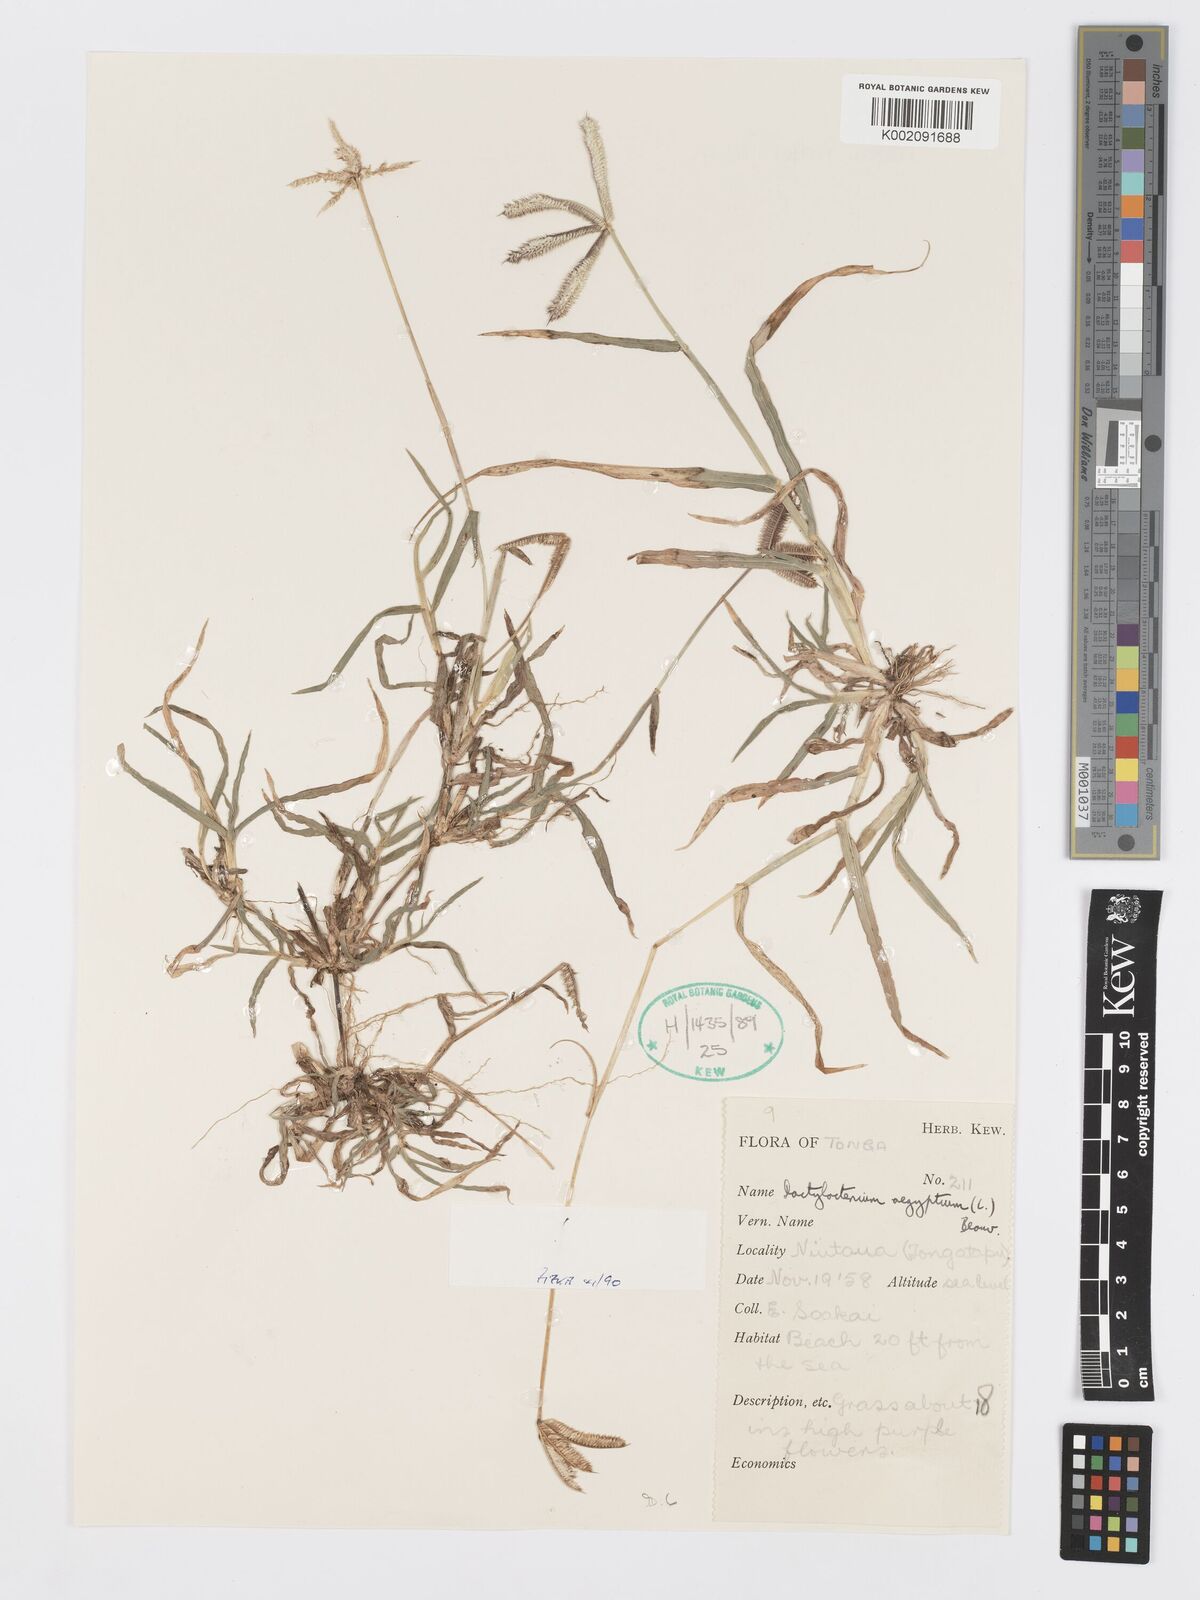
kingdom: Plantae
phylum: Tracheophyta
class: Liliopsida
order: Poales
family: Poaceae
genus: Dactyloctenium
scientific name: Dactyloctenium aegyptium
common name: Egyptian grass
